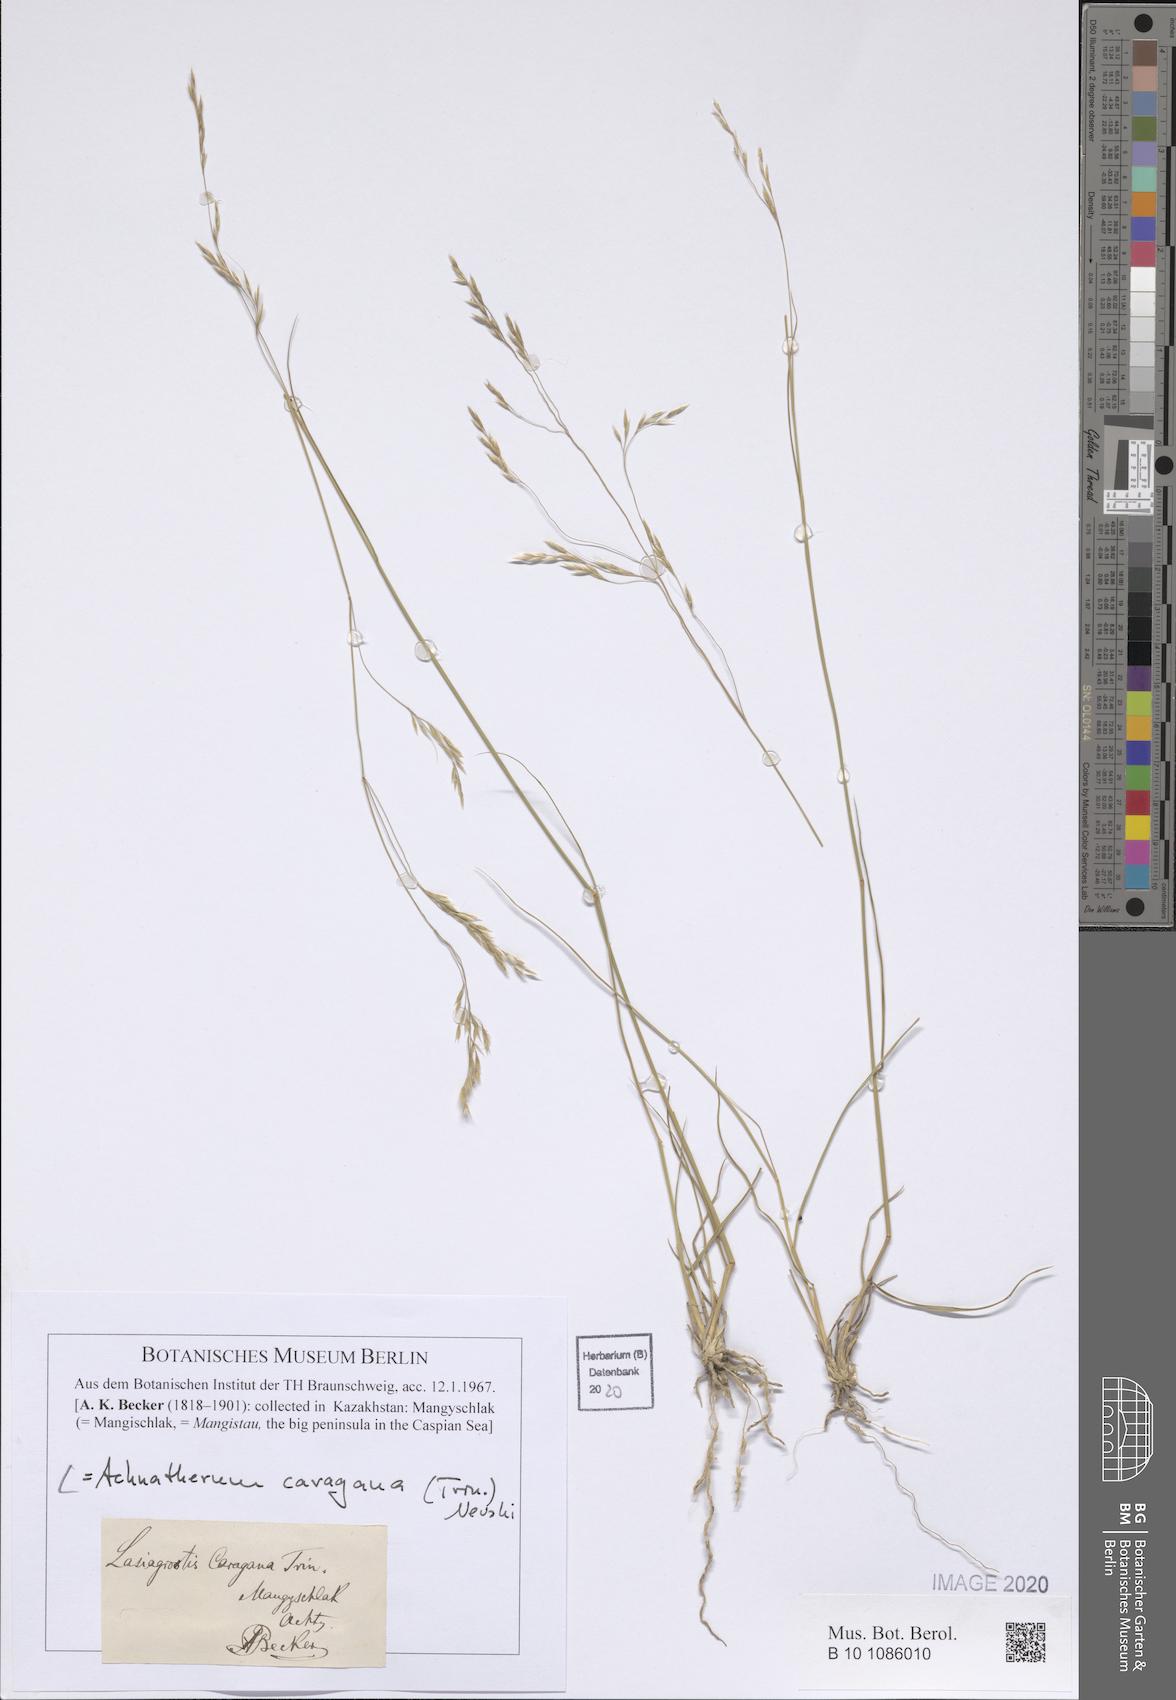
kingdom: Plantae
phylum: Tracheophyta
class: Liliopsida
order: Poales
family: Poaceae
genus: Stipa
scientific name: Stipa conferta
